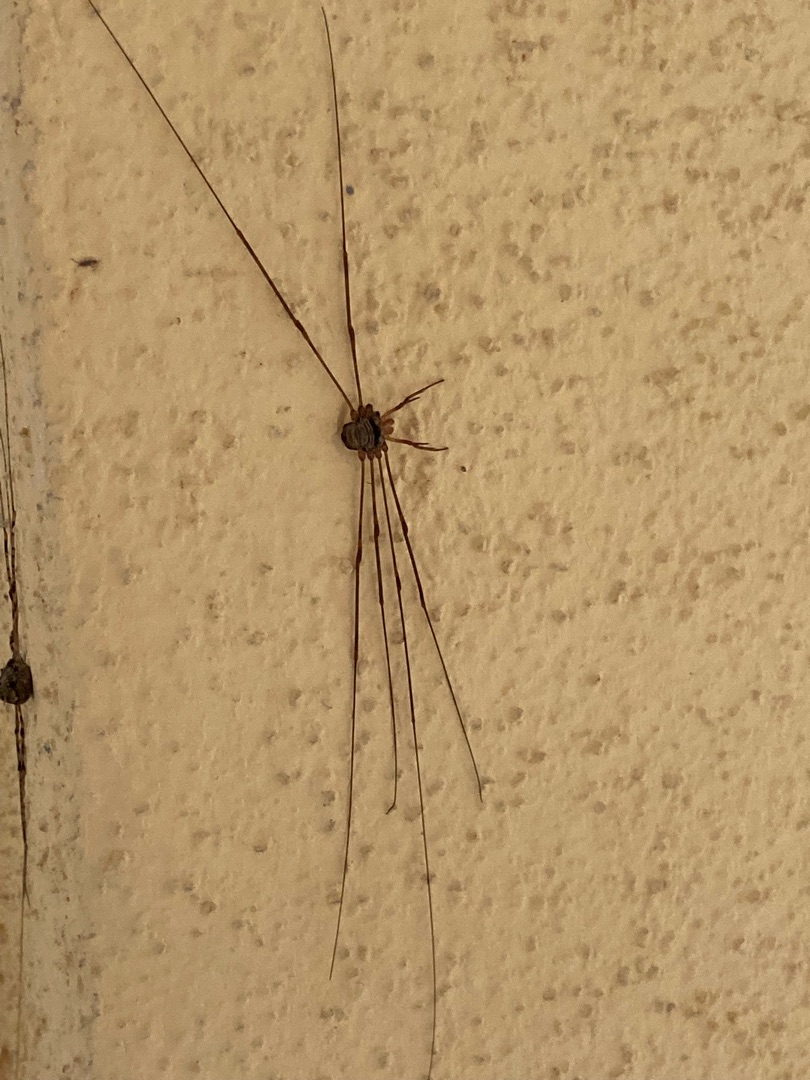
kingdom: Animalia
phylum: Arthropoda
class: Arachnida
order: Opiliones
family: Phalangiidae
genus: Dicranopalpus
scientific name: Dicranopalpus ramosus
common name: Gaffelmejer
